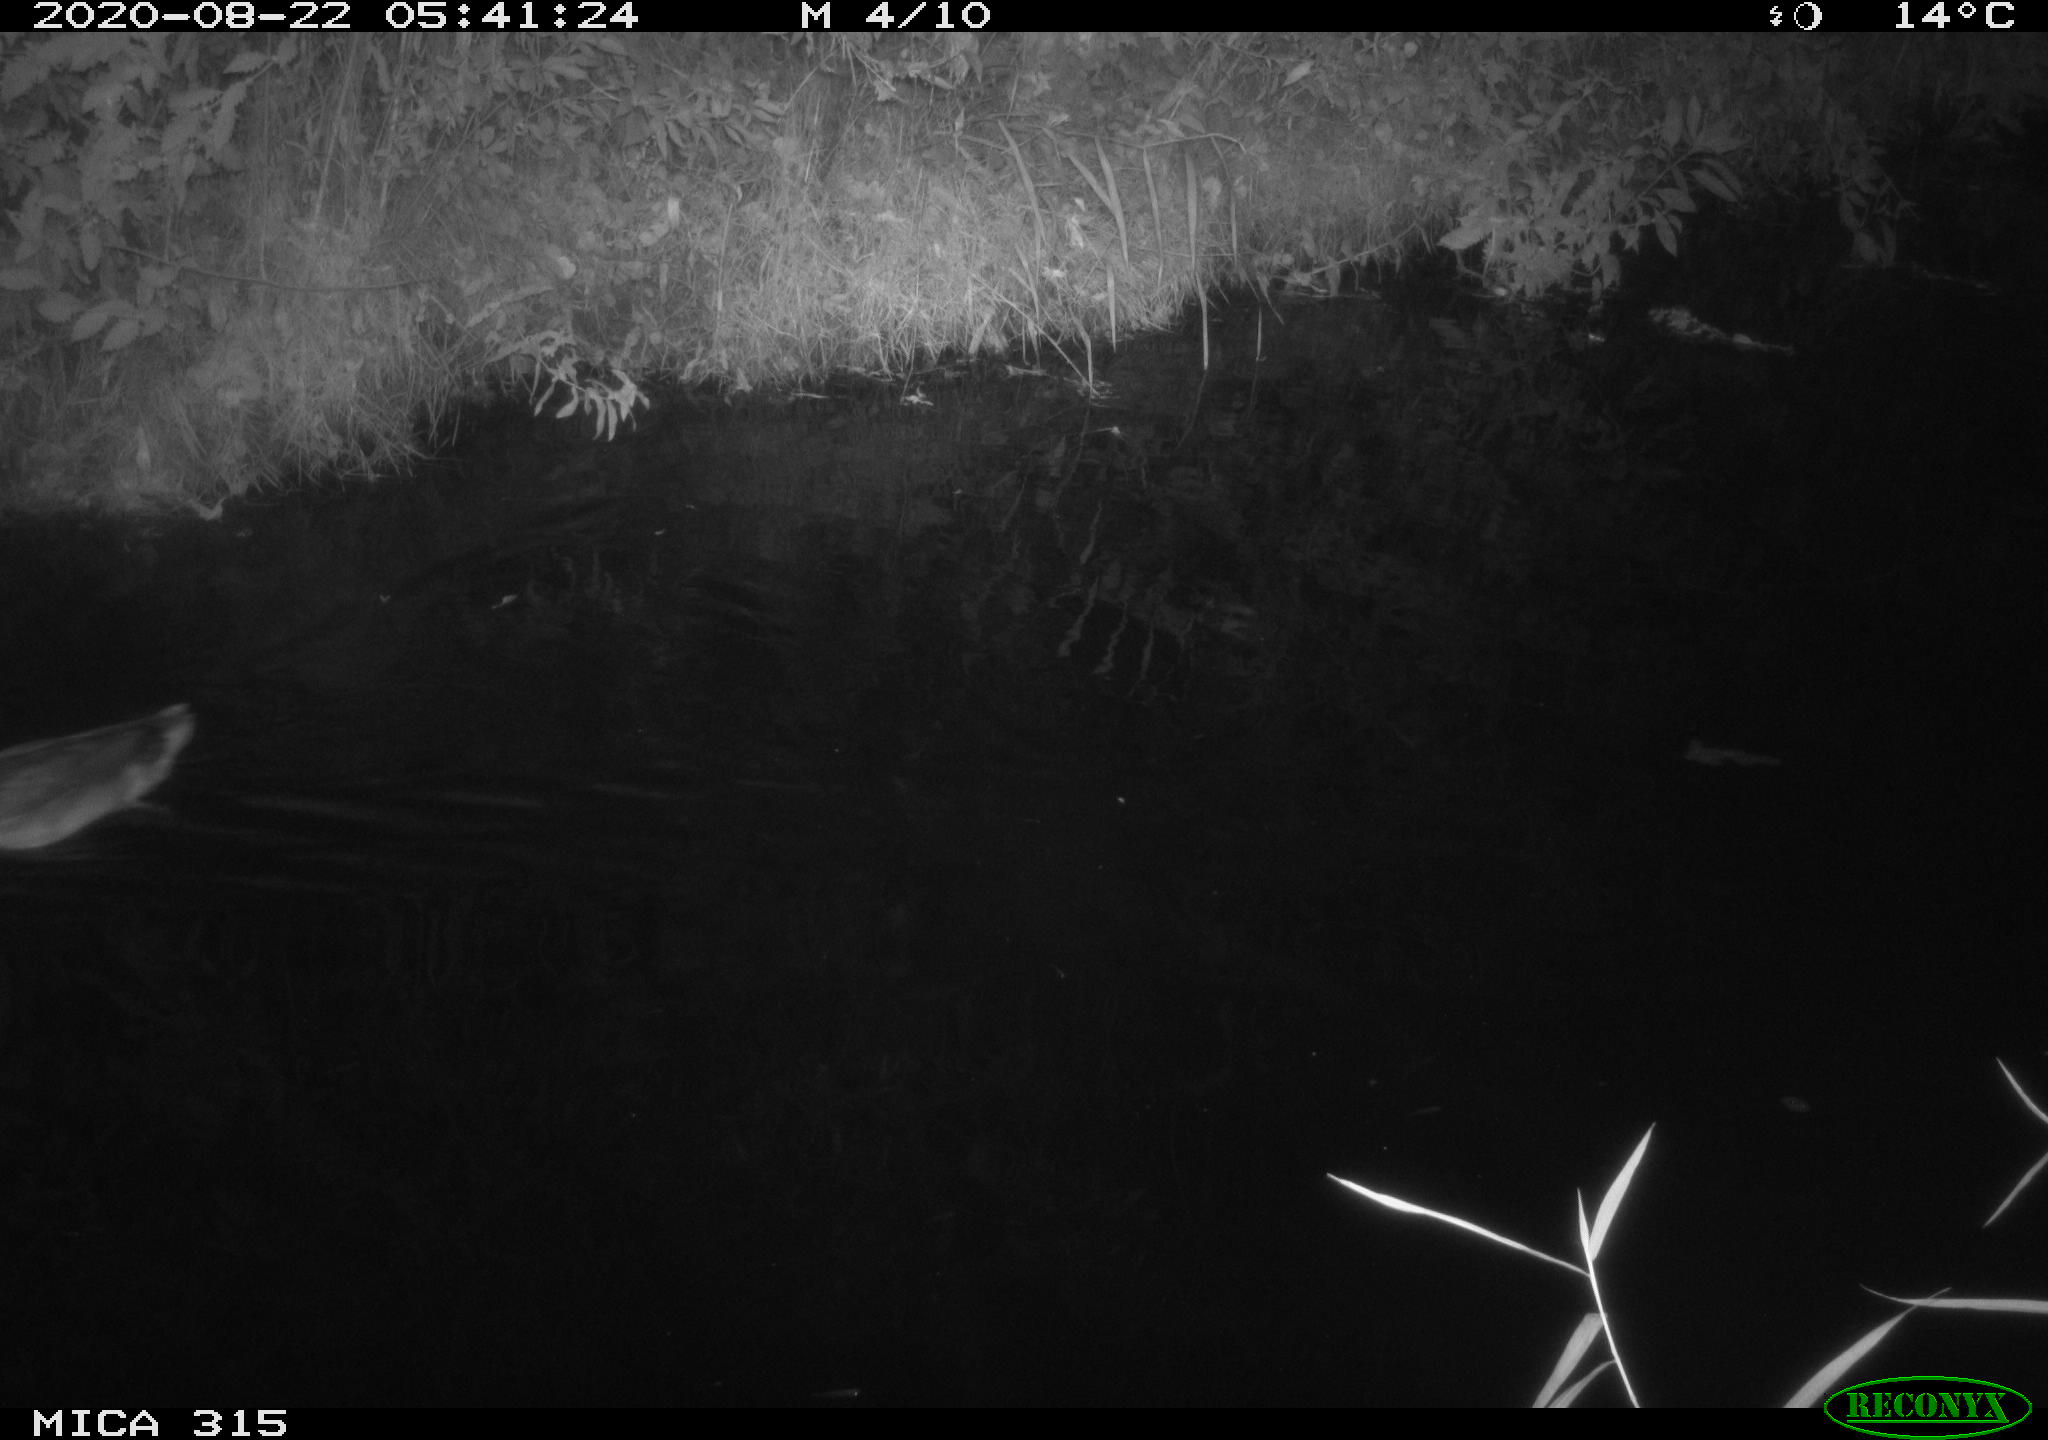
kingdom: Animalia
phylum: Chordata
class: Aves
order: Anseriformes
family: Anatidae
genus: Anas
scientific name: Anas platyrhynchos
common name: Mallard
